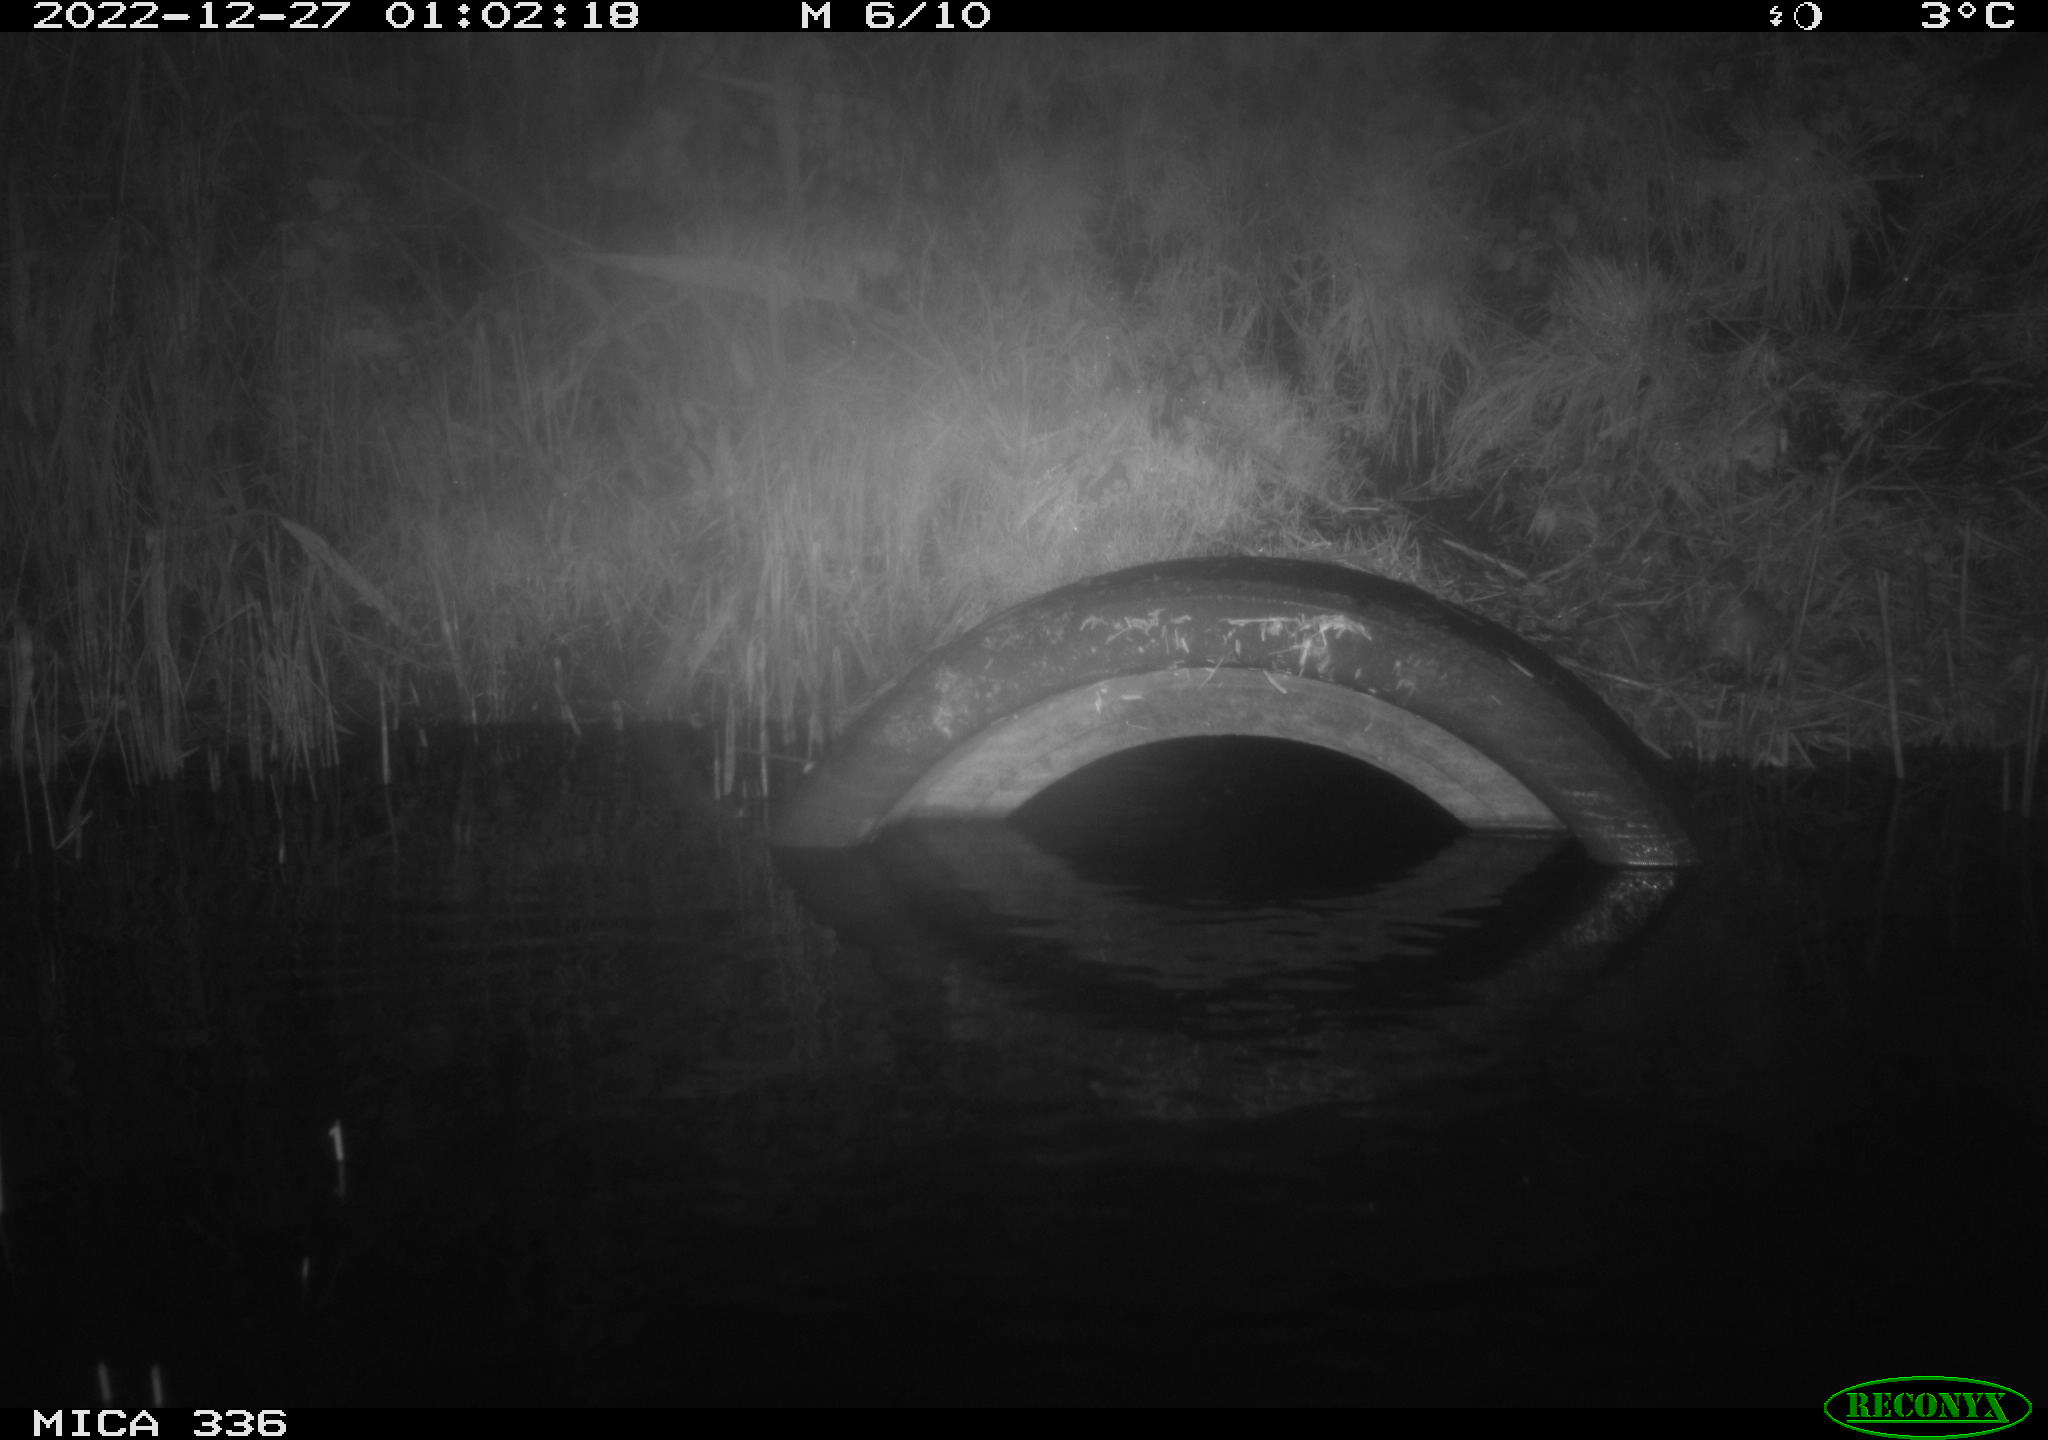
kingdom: Animalia
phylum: Chordata
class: Mammalia
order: Rodentia
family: Muridae
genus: Rattus
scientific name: Rattus norvegicus
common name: Brown rat
